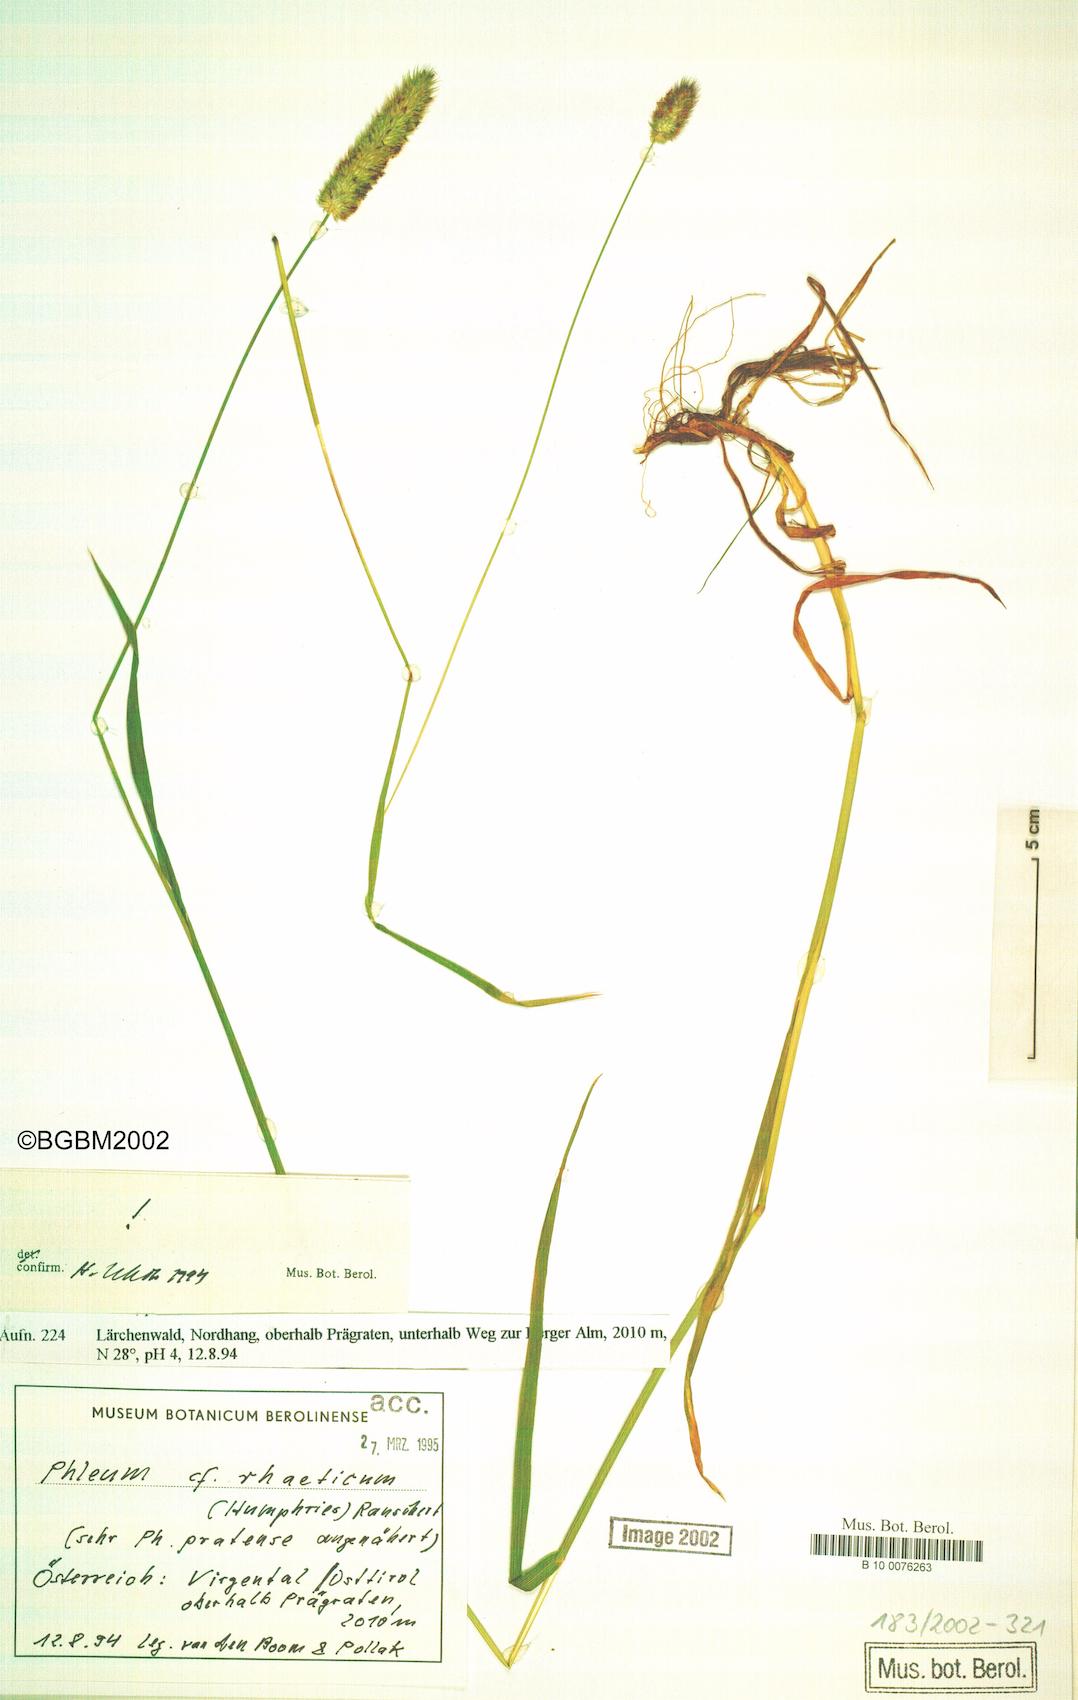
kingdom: Plantae
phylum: Tracheophyta
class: Liliopsida
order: Poales
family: Poaceae
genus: Phleum
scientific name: Phleum alpinum
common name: Alpine cat's-tail
